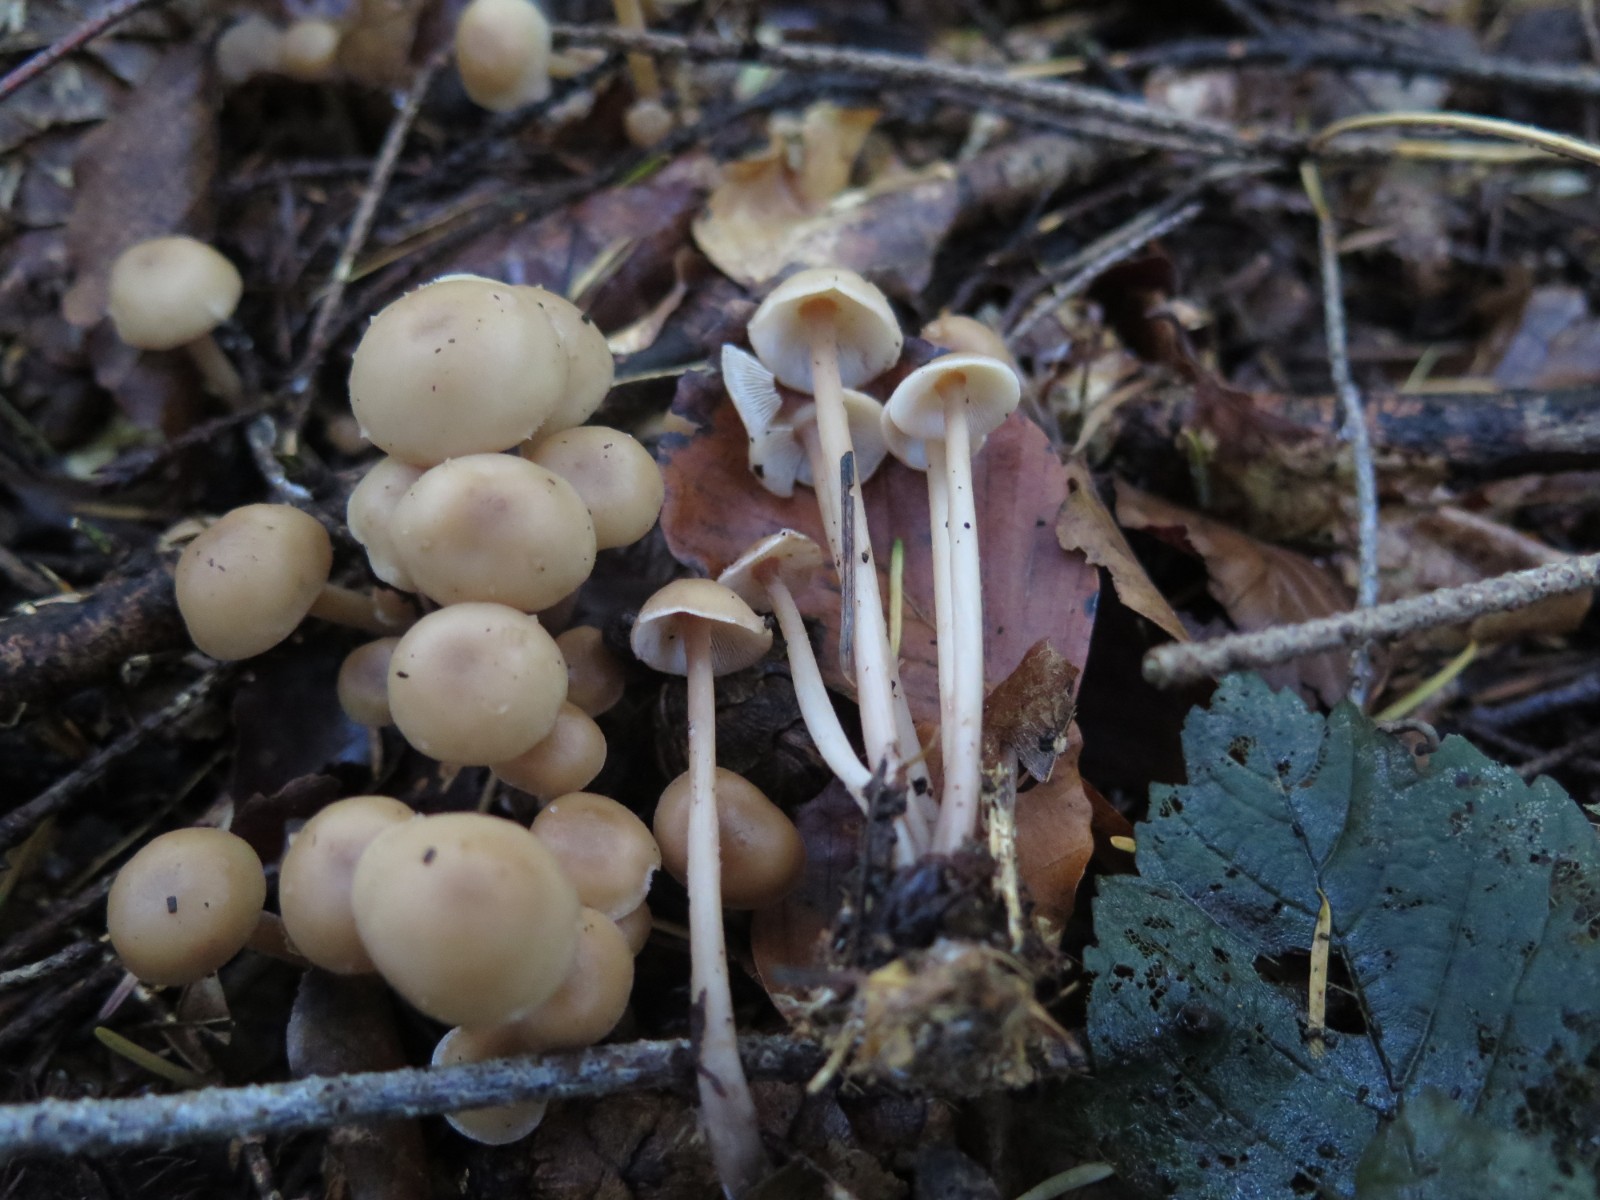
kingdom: Fungi
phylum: Basidiomycota
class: Agaricomycetes
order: Agaricales
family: Omphalotaceae
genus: Collybiopsis
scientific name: Collybiopsis confluens
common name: knippe-fladhat
